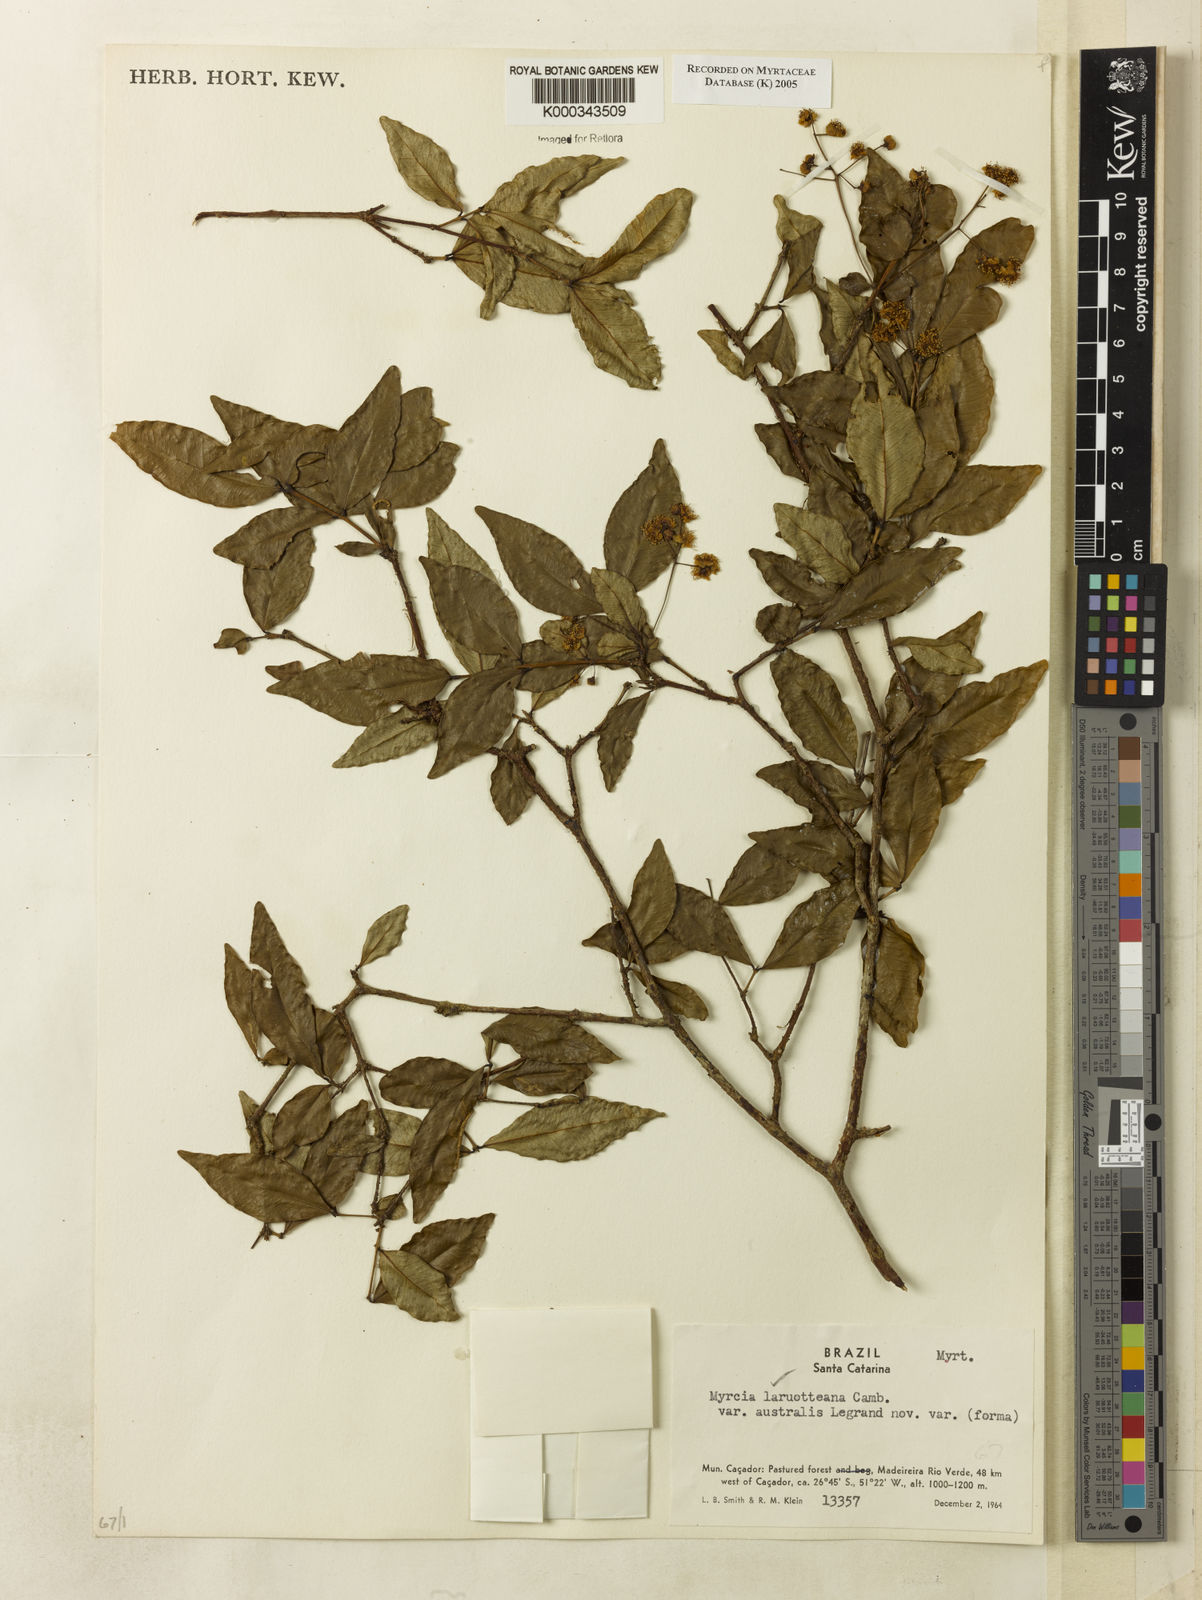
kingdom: Plantae
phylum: Tracheophyta
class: Magnoliopsida
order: Myrtales
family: Myrtaceae
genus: Myrcia
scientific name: Myrcia laruotteana
